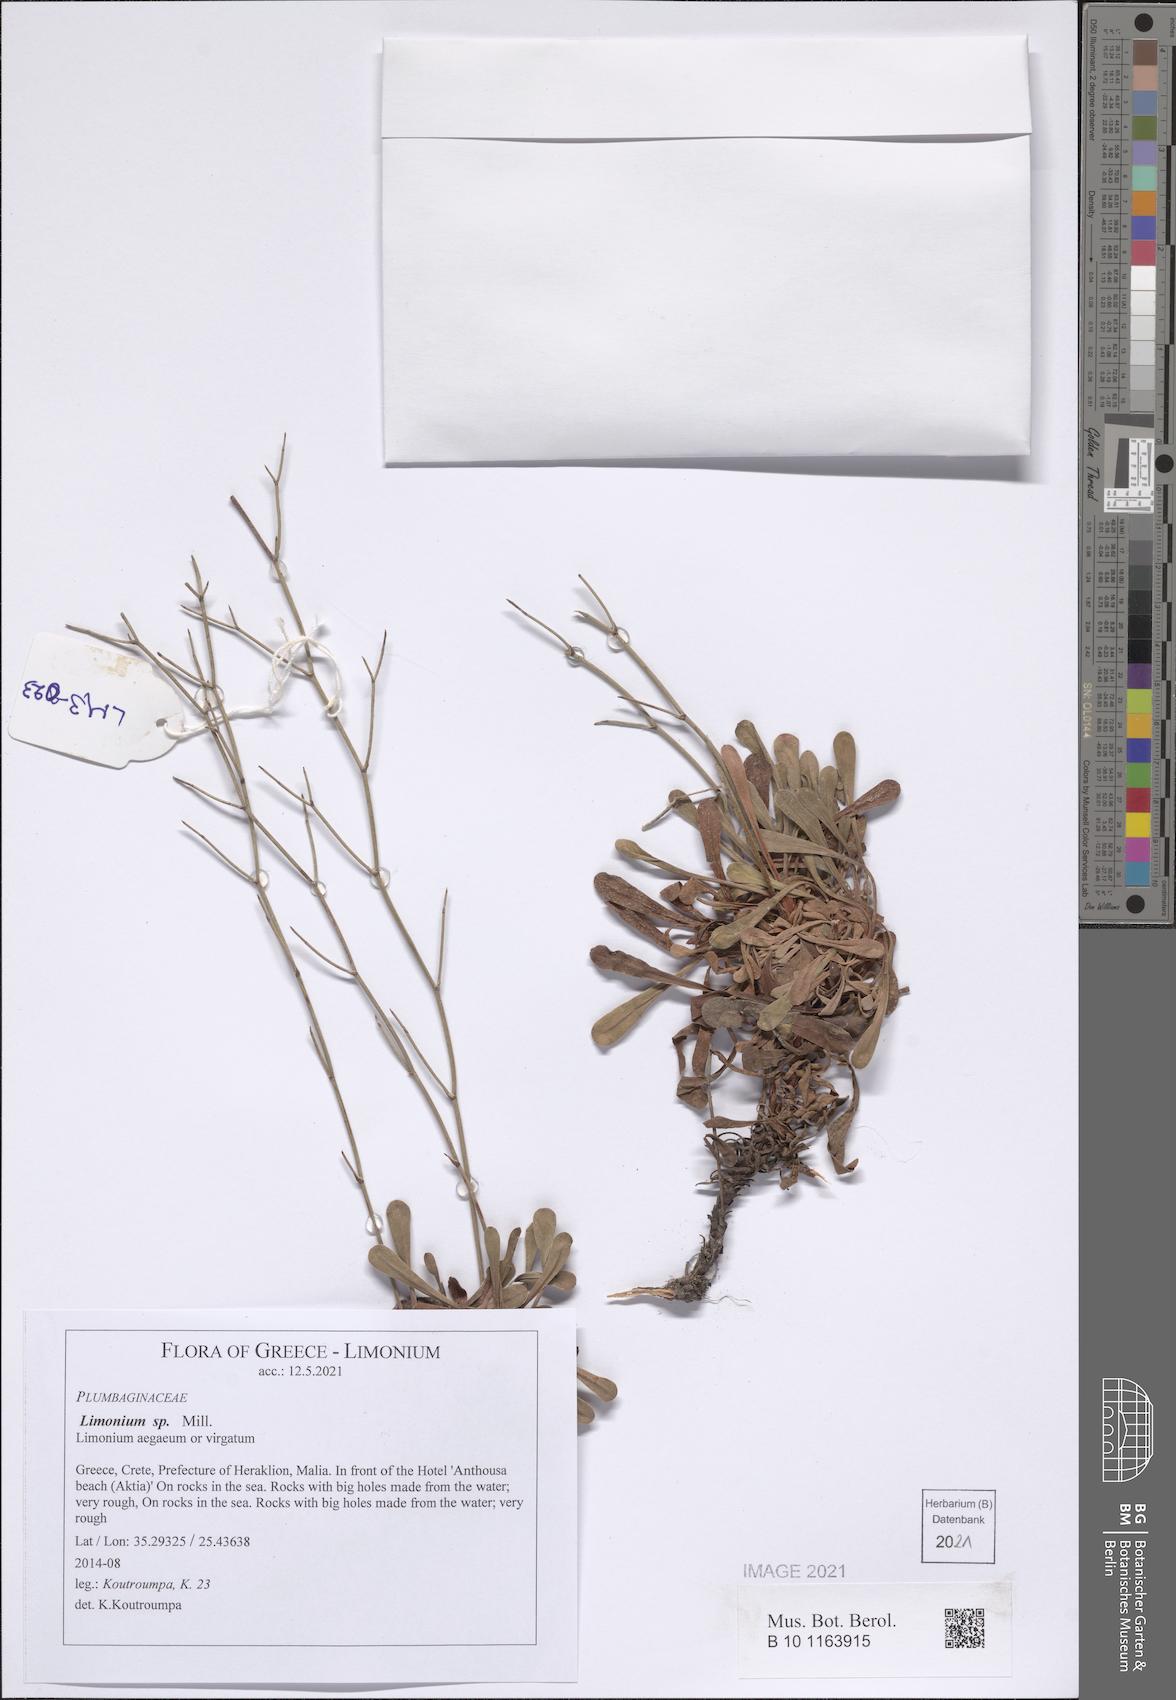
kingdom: Plantae
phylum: Tracheophyta
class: Magnoliopsida
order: Caryophyllales
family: Plumbaginaceae
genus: Limonium
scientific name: Limonium
